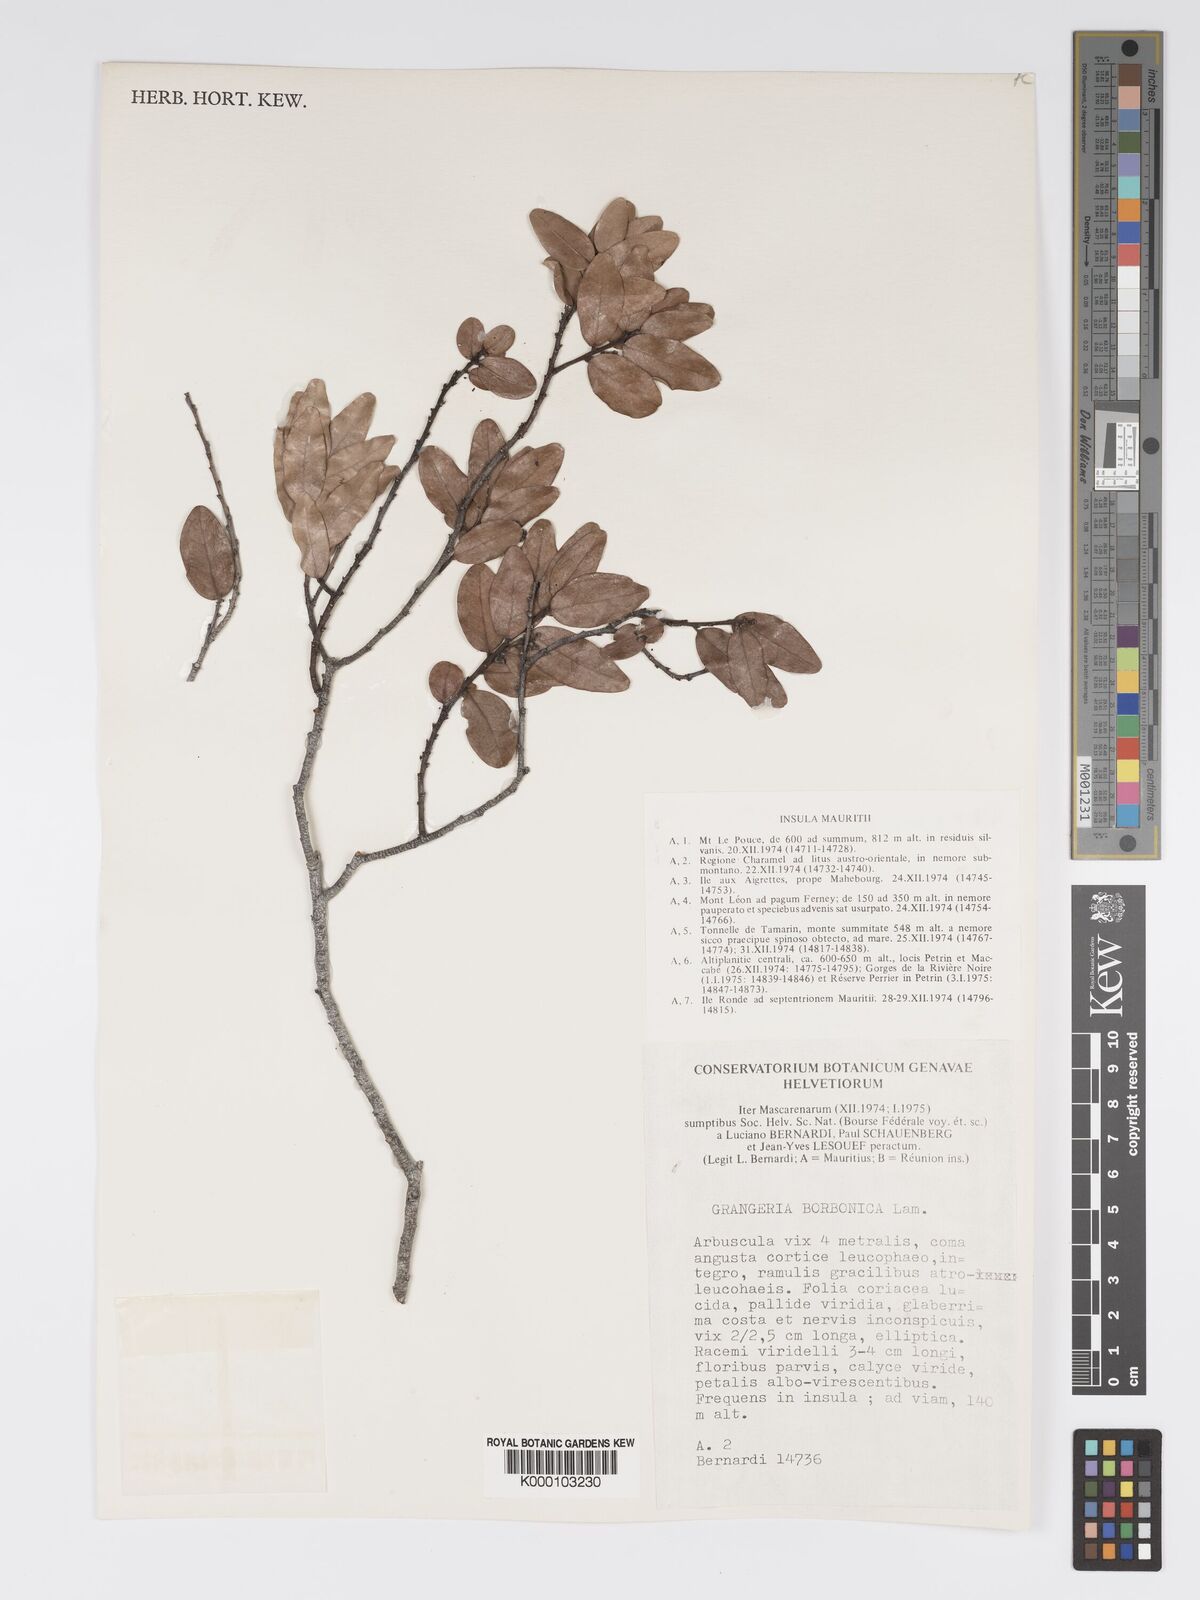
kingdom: Plantae
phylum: Tracheophyta
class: Magnoliopsida
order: Malpighiales
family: Chrysobalanaceae
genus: Grangeria
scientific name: Grangeria borbonica
